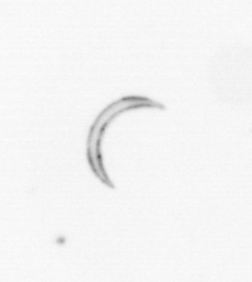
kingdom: Chromista
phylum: Ochrophyta
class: Bacillariophyceae
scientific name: Bacillariophyceae
